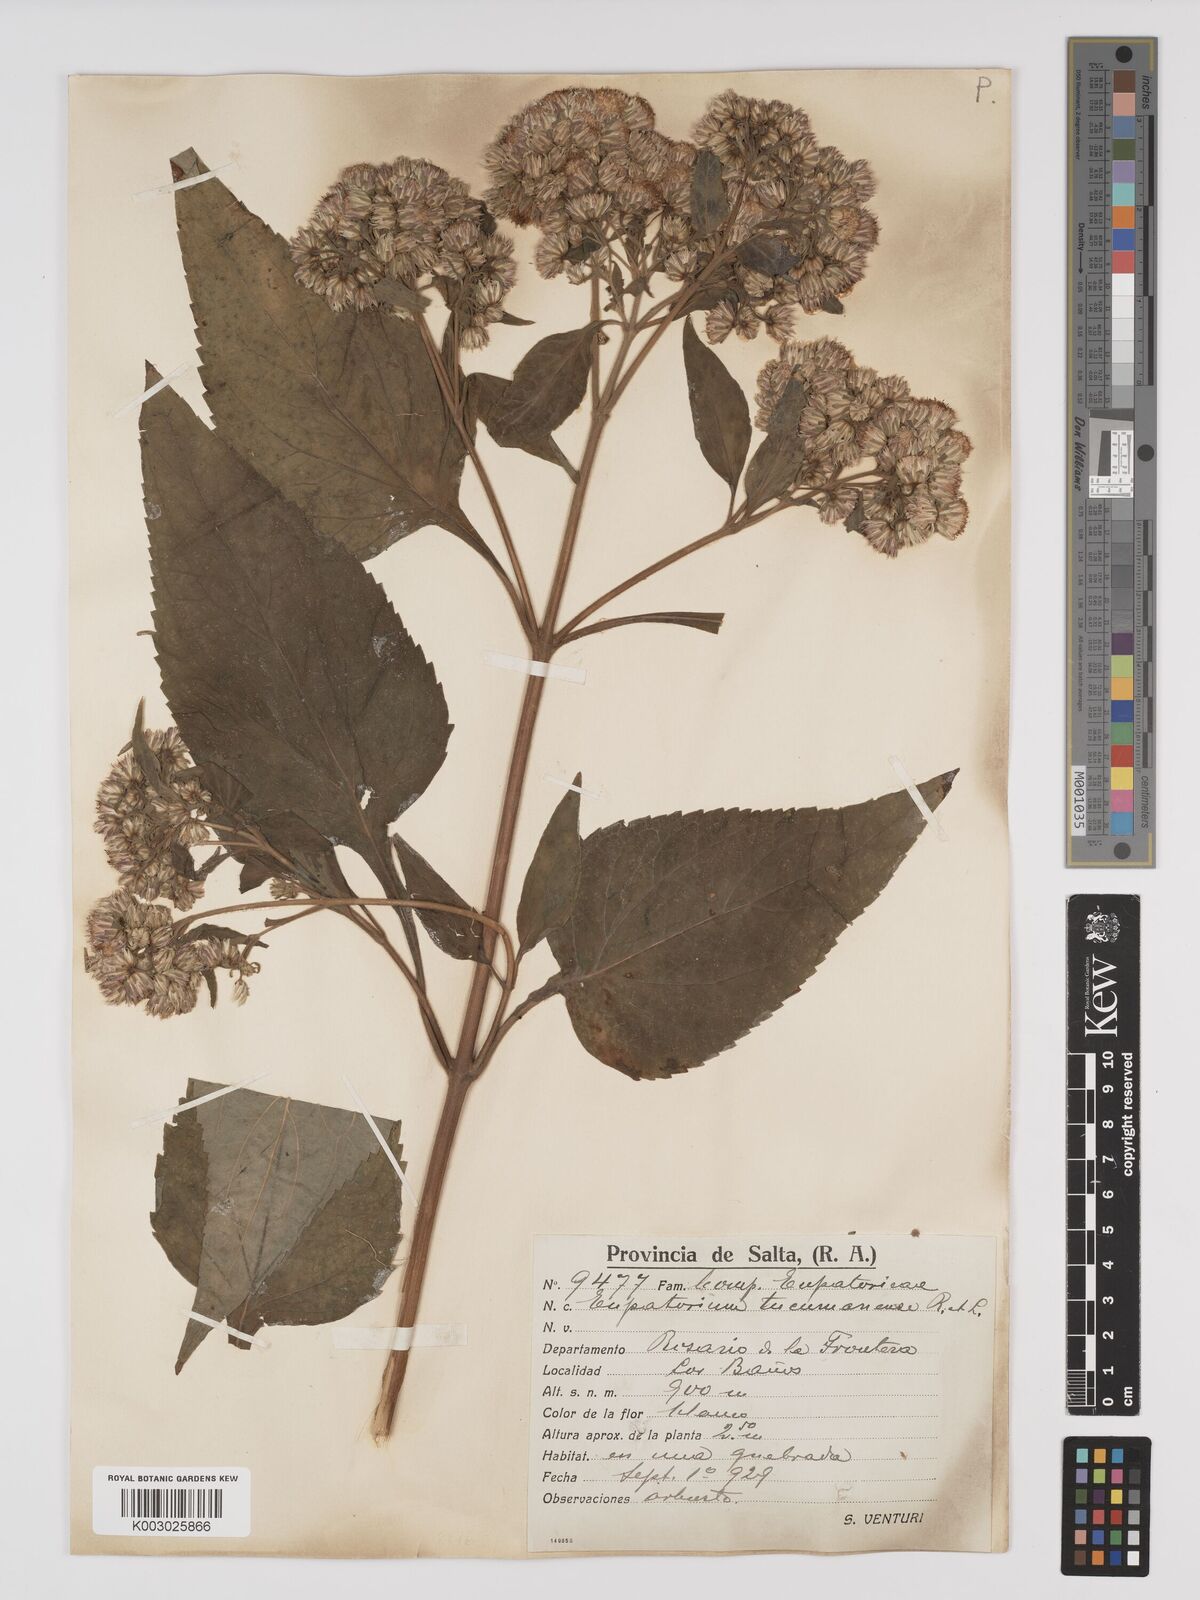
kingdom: Plantae
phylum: Tracheophyta
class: Magnoliopsida
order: Asterales
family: Asteraceae
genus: Ayapanopsis
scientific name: Ayapanopsis tucumanensis
